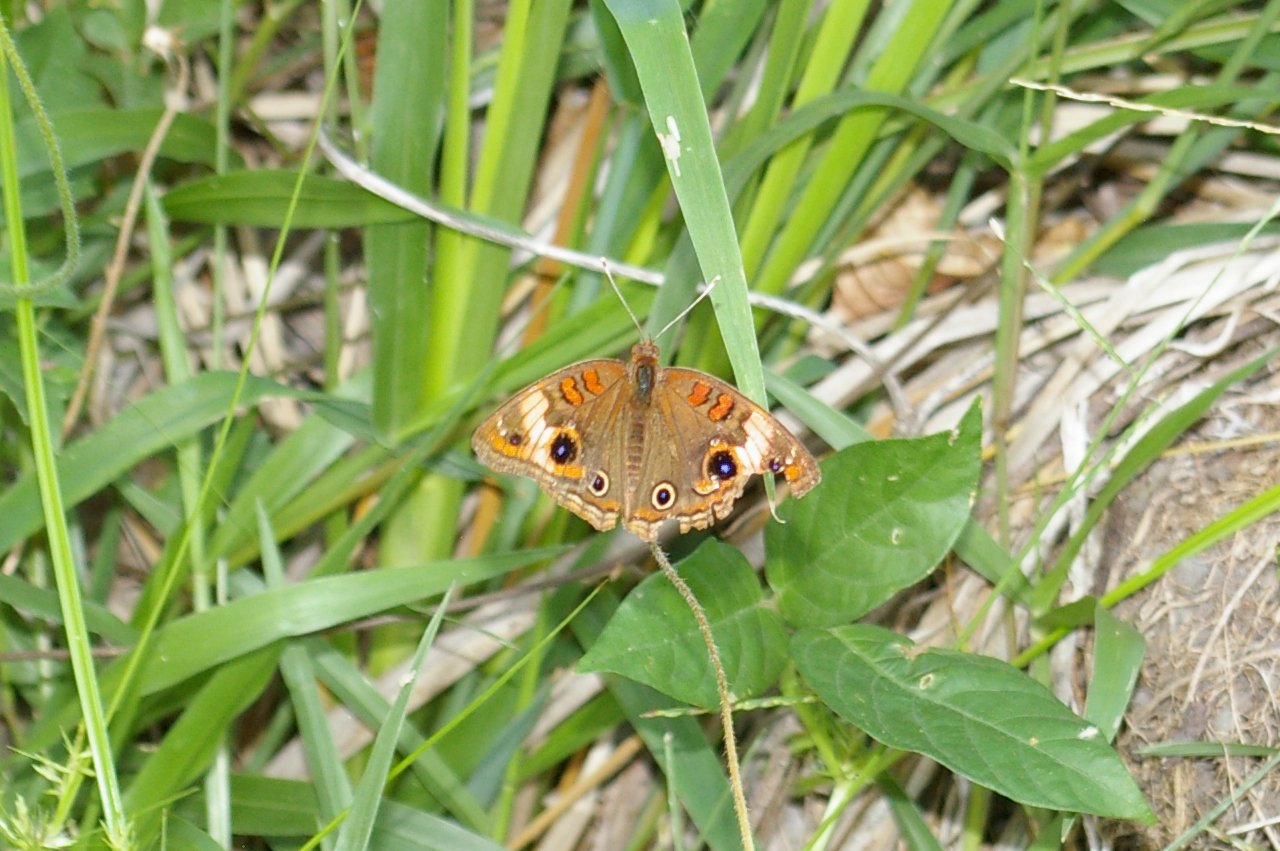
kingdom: Animalia
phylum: Arthropoda
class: Insecta
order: Lepidoptera
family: Nymphalidae
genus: Junonia
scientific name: Junonia evarete
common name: Mangrove Buckeye
